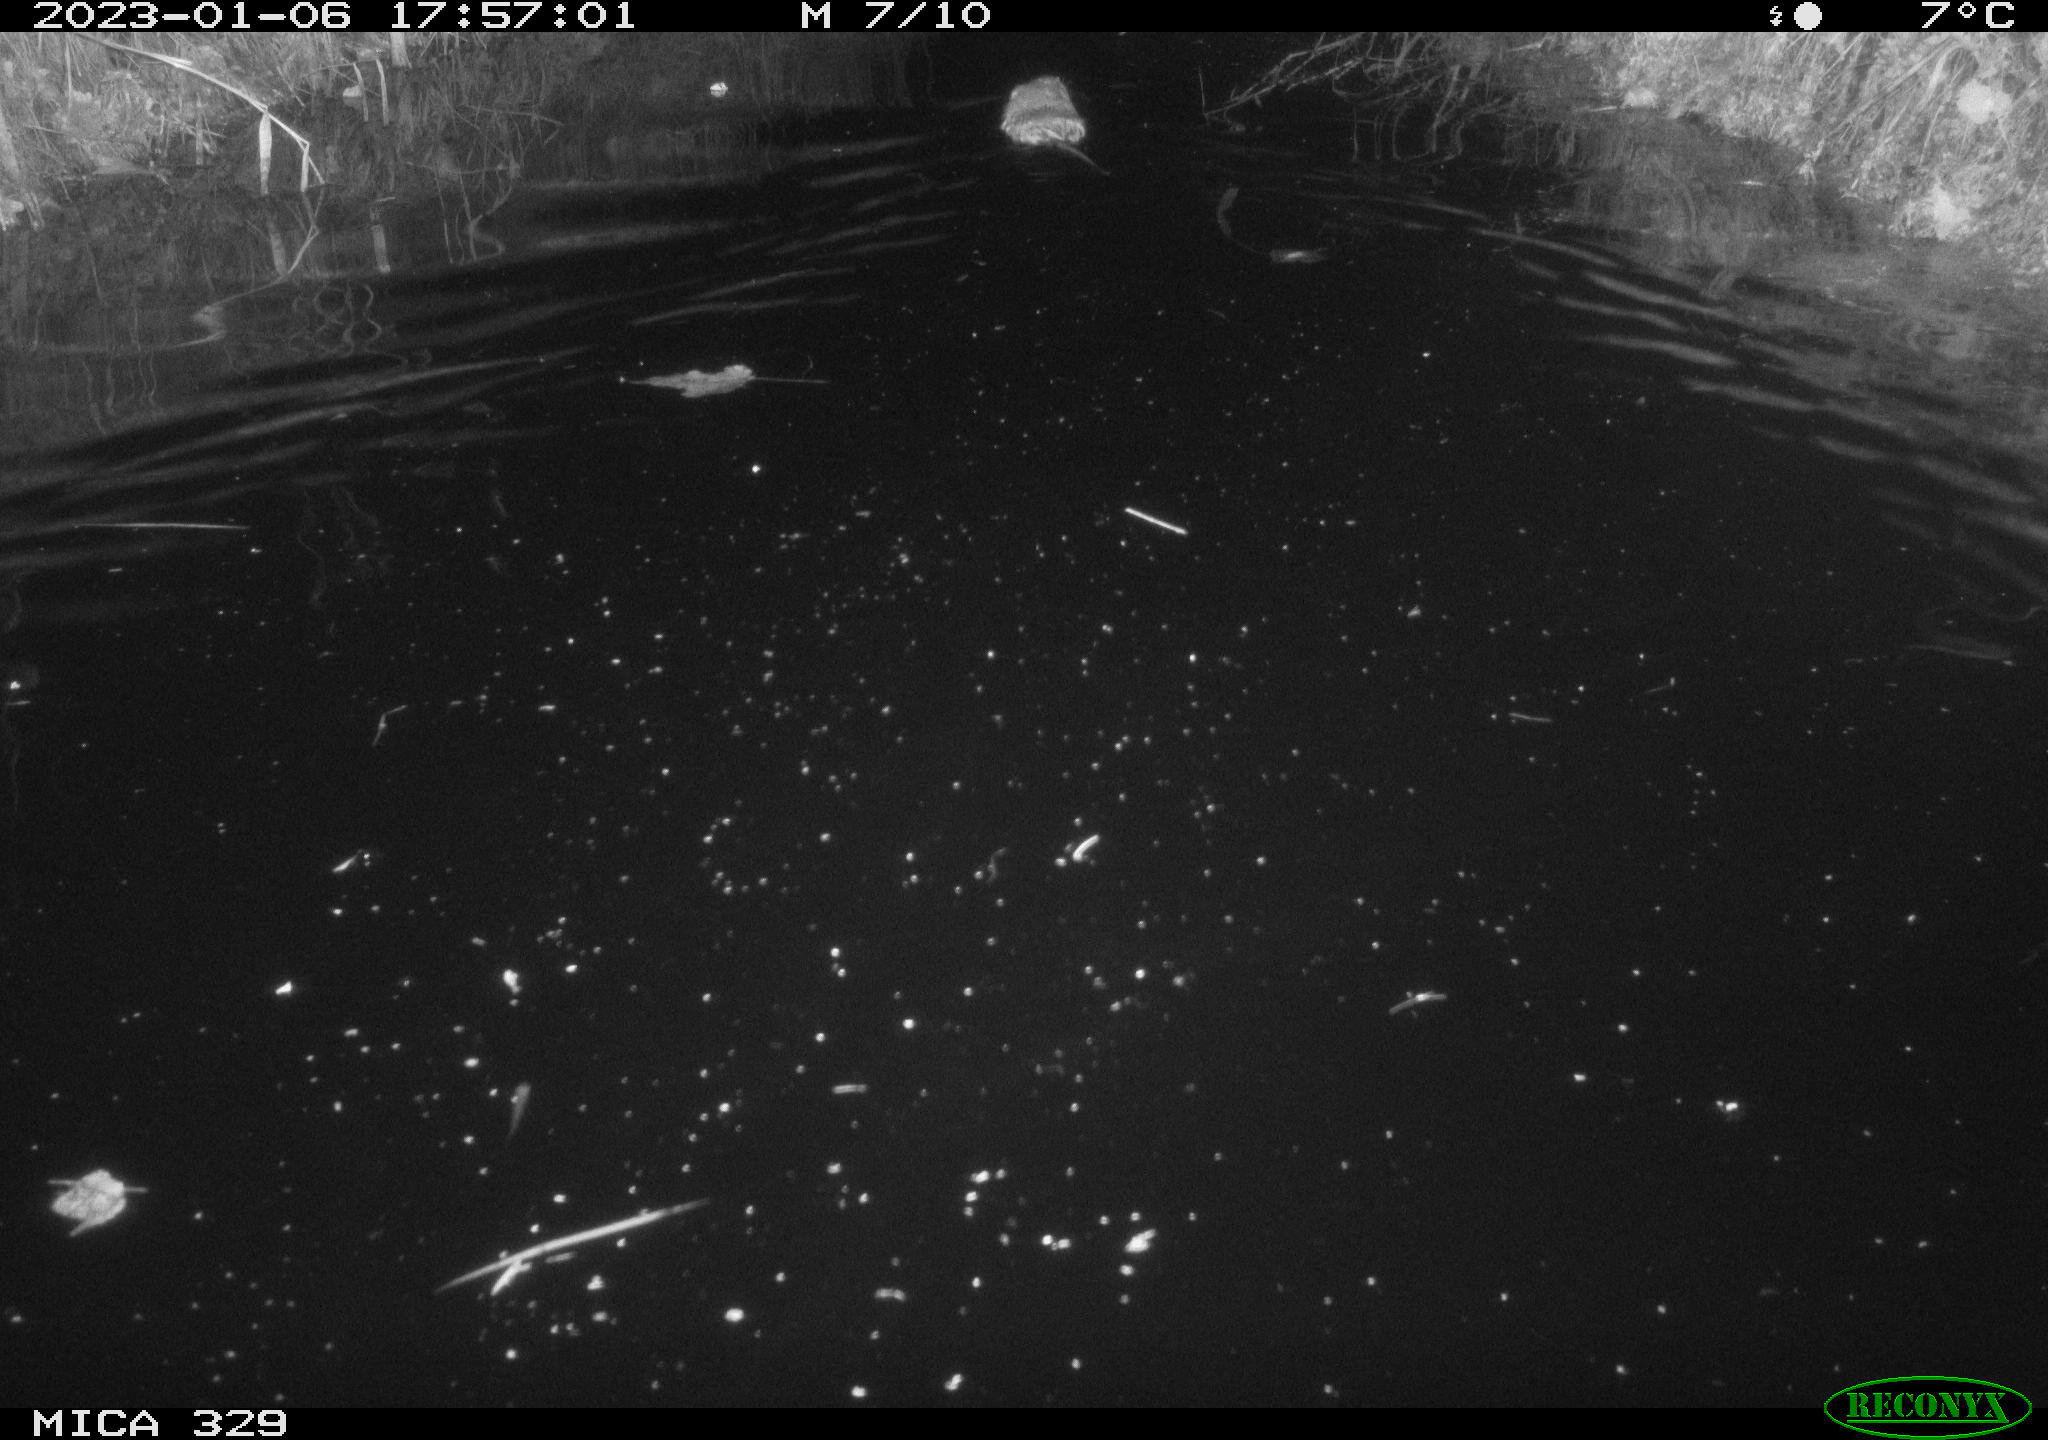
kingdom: Animalia
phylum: Chordata
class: Mammalia
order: Rodentia
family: Cricetidae
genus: Ondatra
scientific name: Ondatra zibethicus
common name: Muskrat
